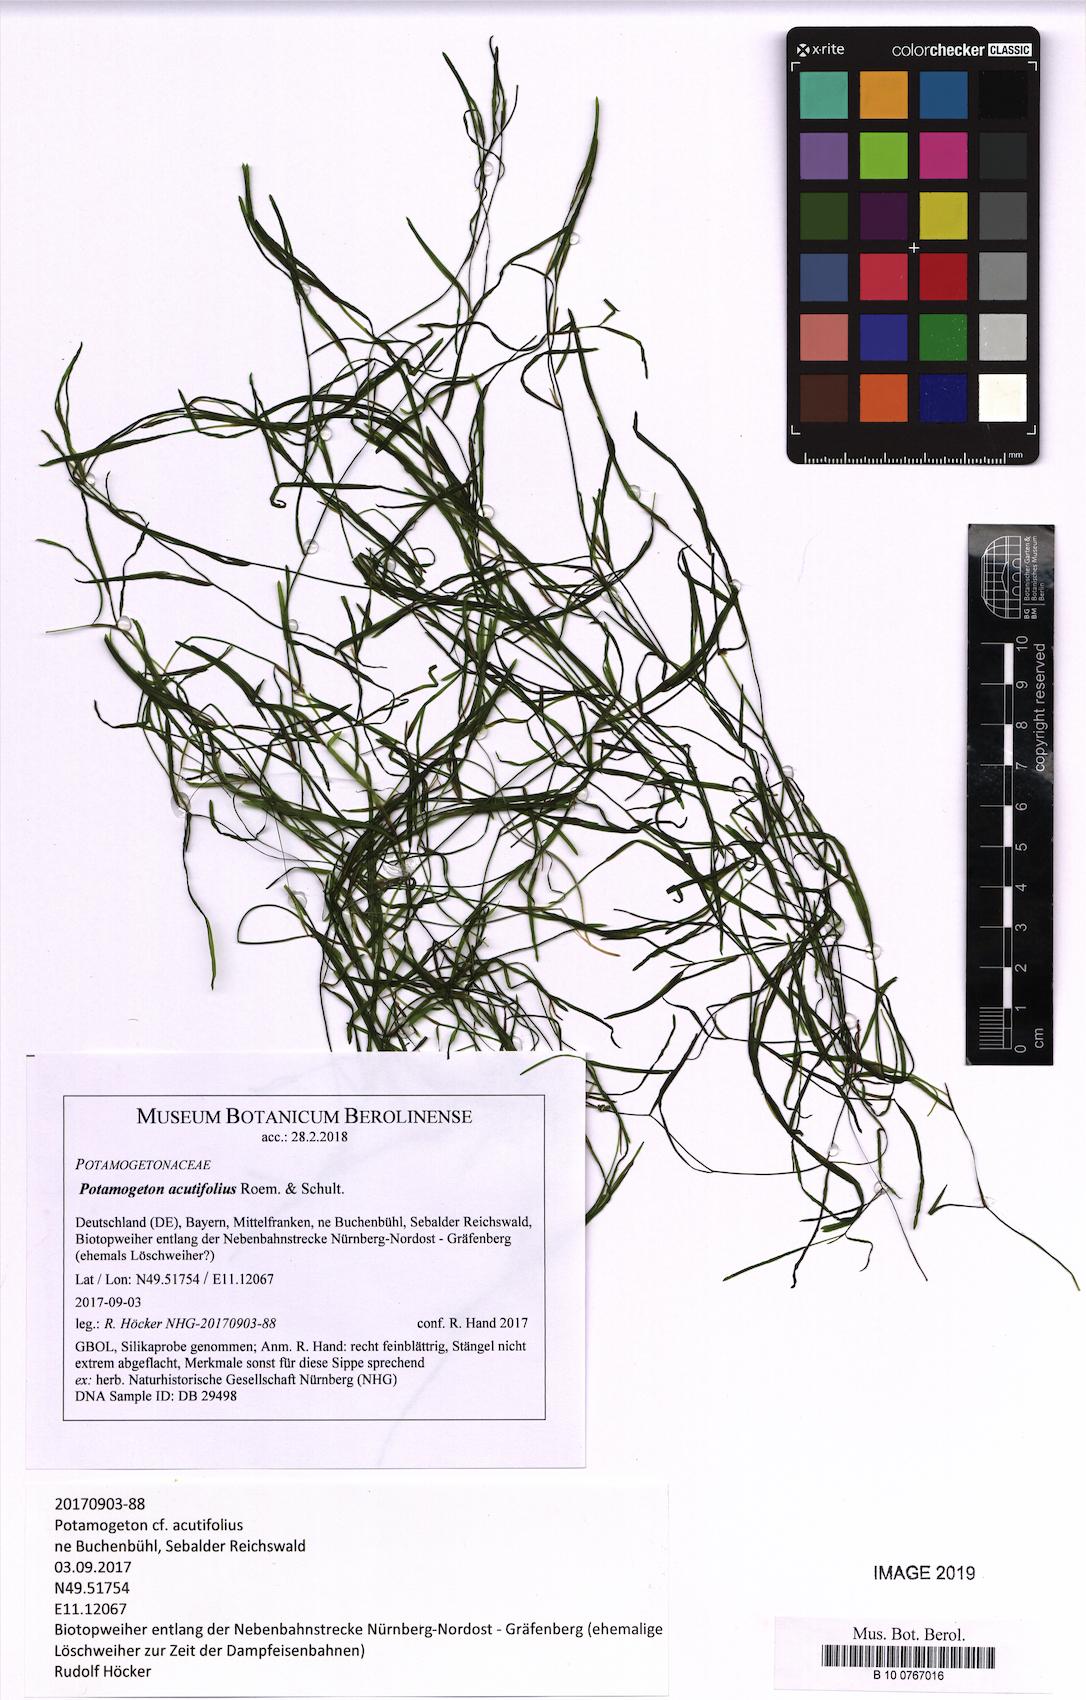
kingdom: Plantae
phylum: Tracheophyta
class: Liliopsida
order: Alismatales
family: Potamogetonaceae
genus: Potamogeton
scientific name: Potamogeton acutifolius
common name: Sharp-leaved pondweed
